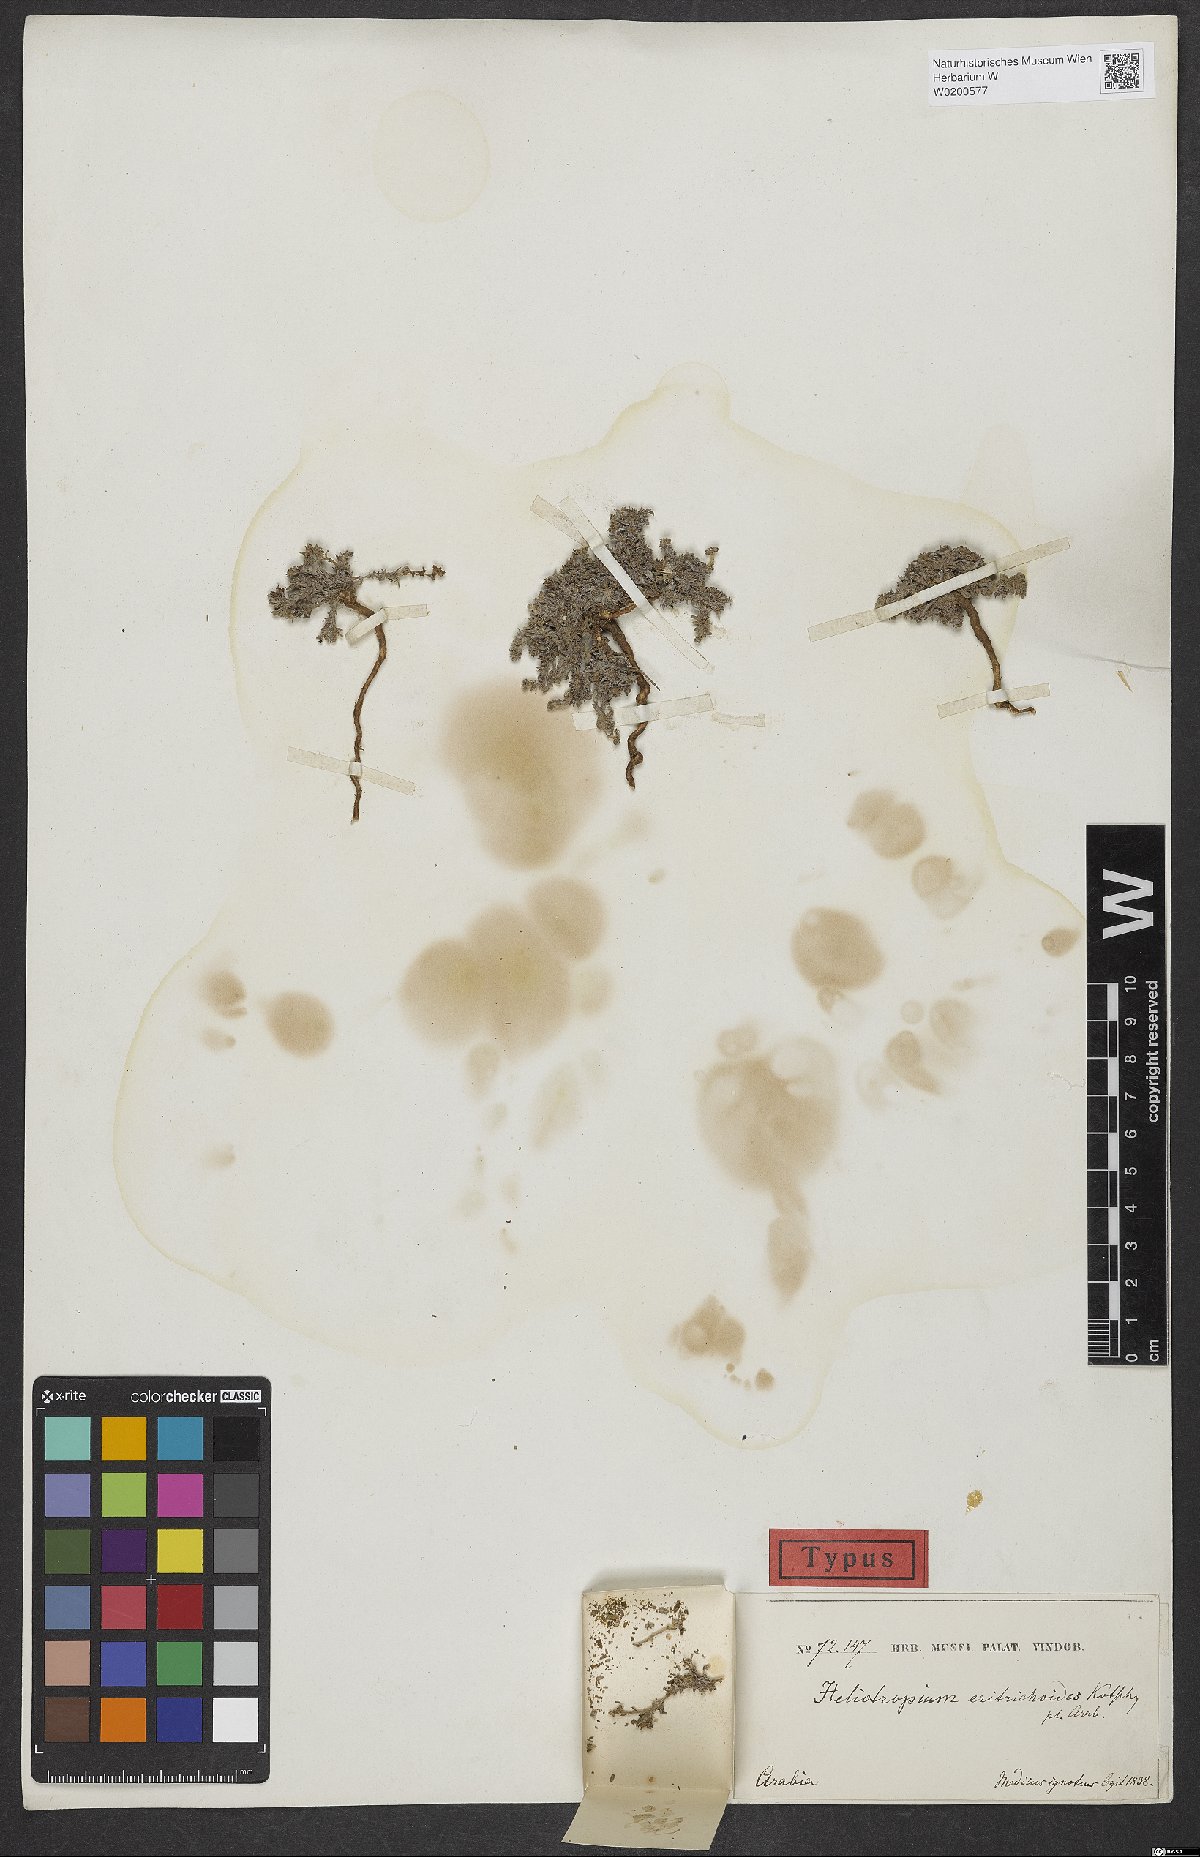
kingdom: Plantae
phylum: Tracheophyta
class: Magnoliopsida
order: Boraginales
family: Heliotropiaceae
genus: Heliotropium
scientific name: Heliotropium eritrichoides
